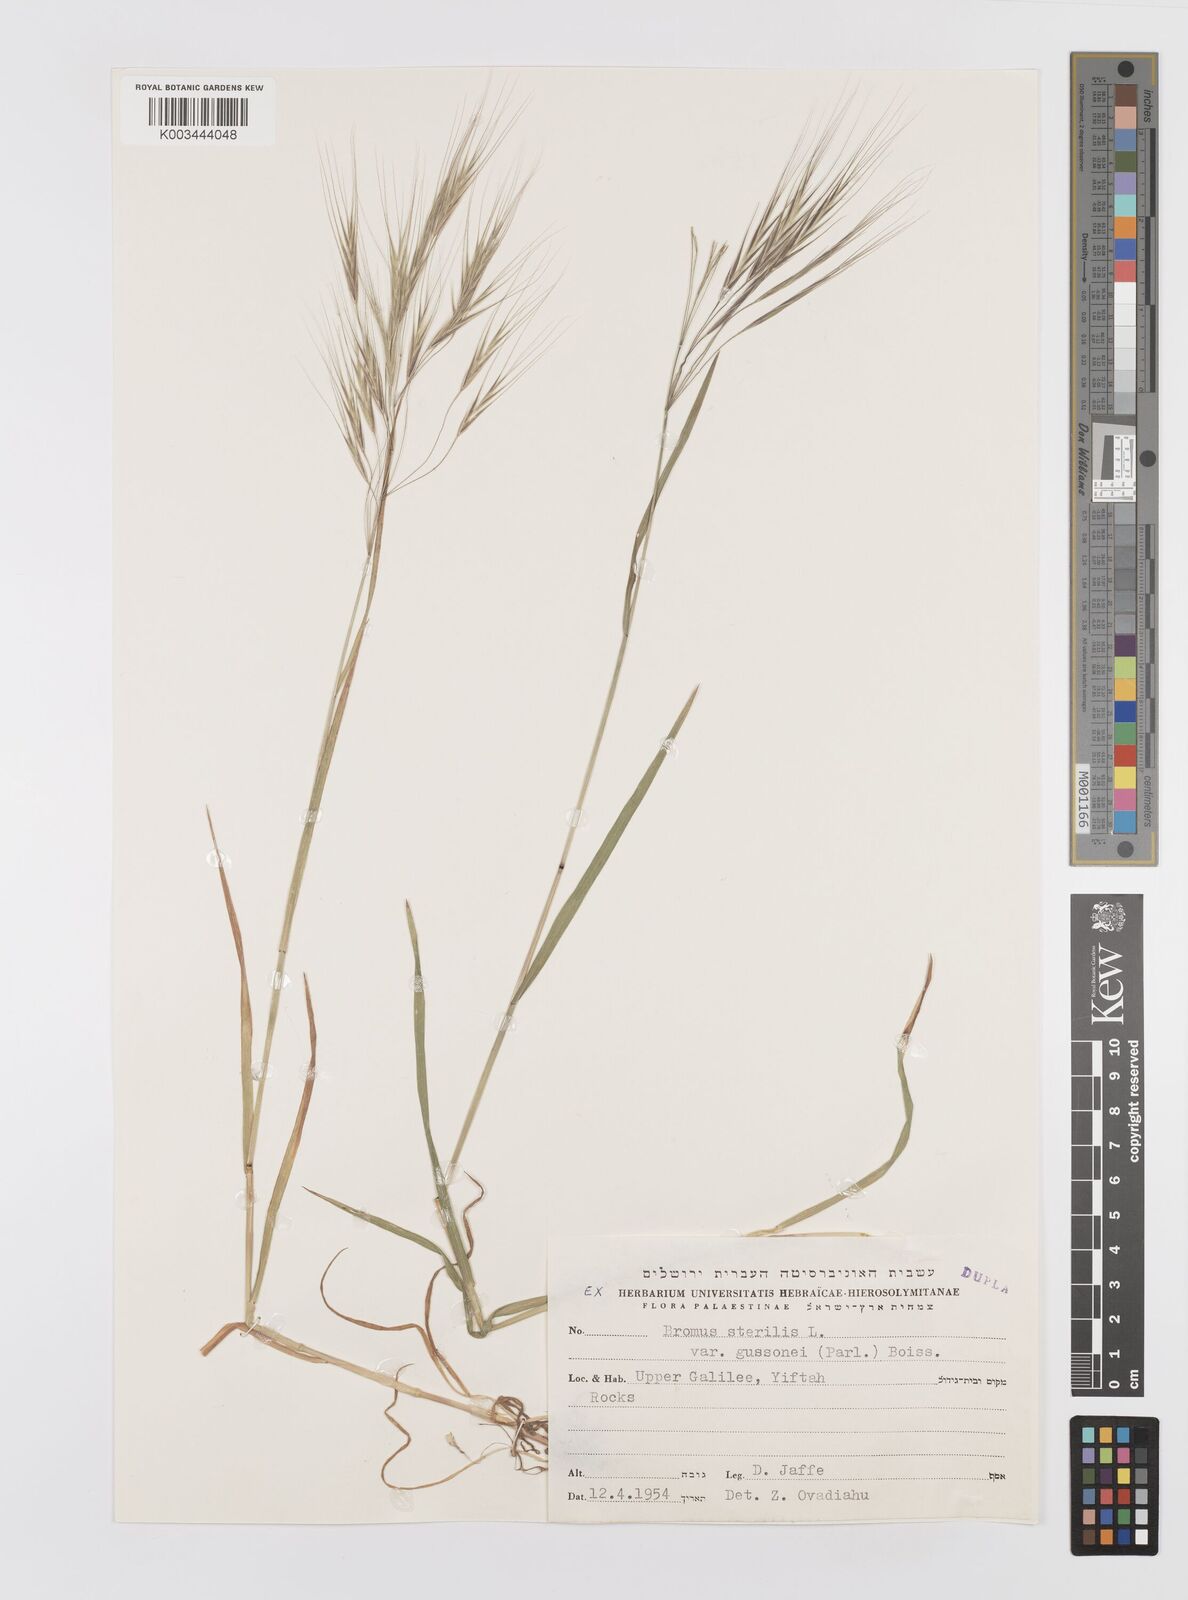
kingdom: Plantae
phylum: Tracheophyta
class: Liliopsida
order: Poales
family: Poaceae
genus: Bromus
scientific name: Bromus sterilis
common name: Poverty brome
